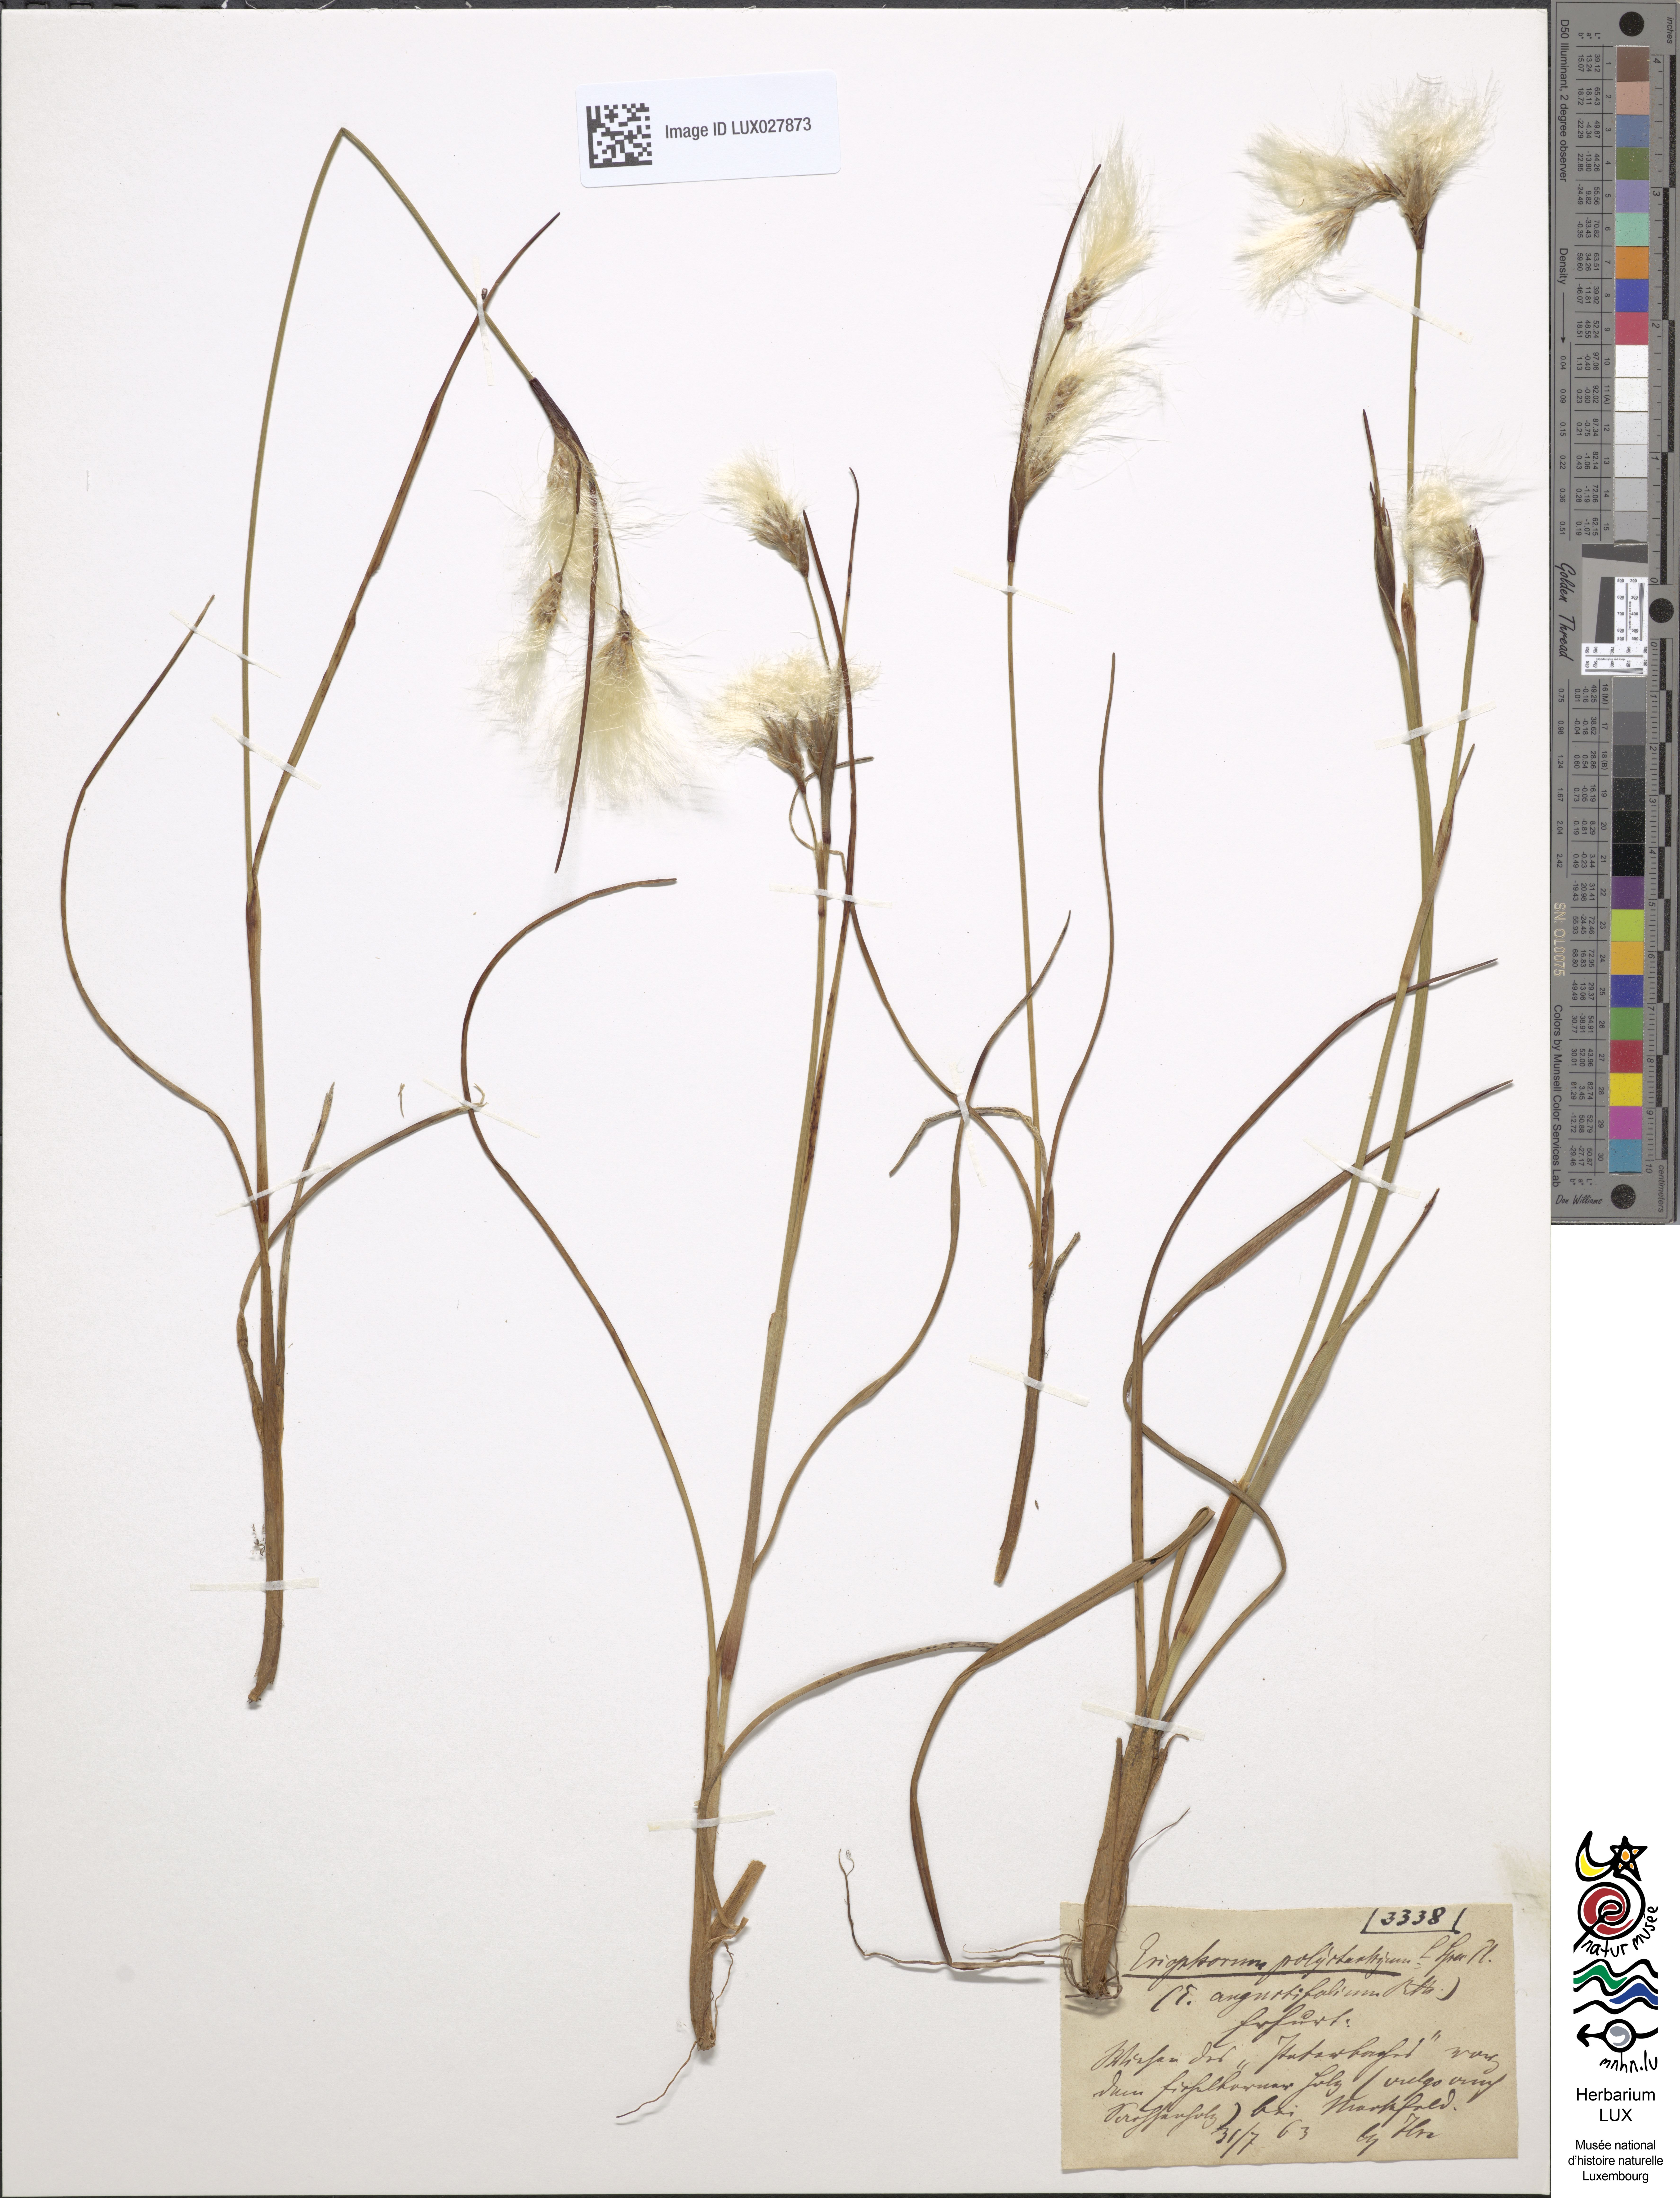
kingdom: Plantae
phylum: Tracheophyta
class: Liliopsida
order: Poales
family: Cyperaceae
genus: Eriophorum
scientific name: Eriophorum angustifolium
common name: Common cottongrass
